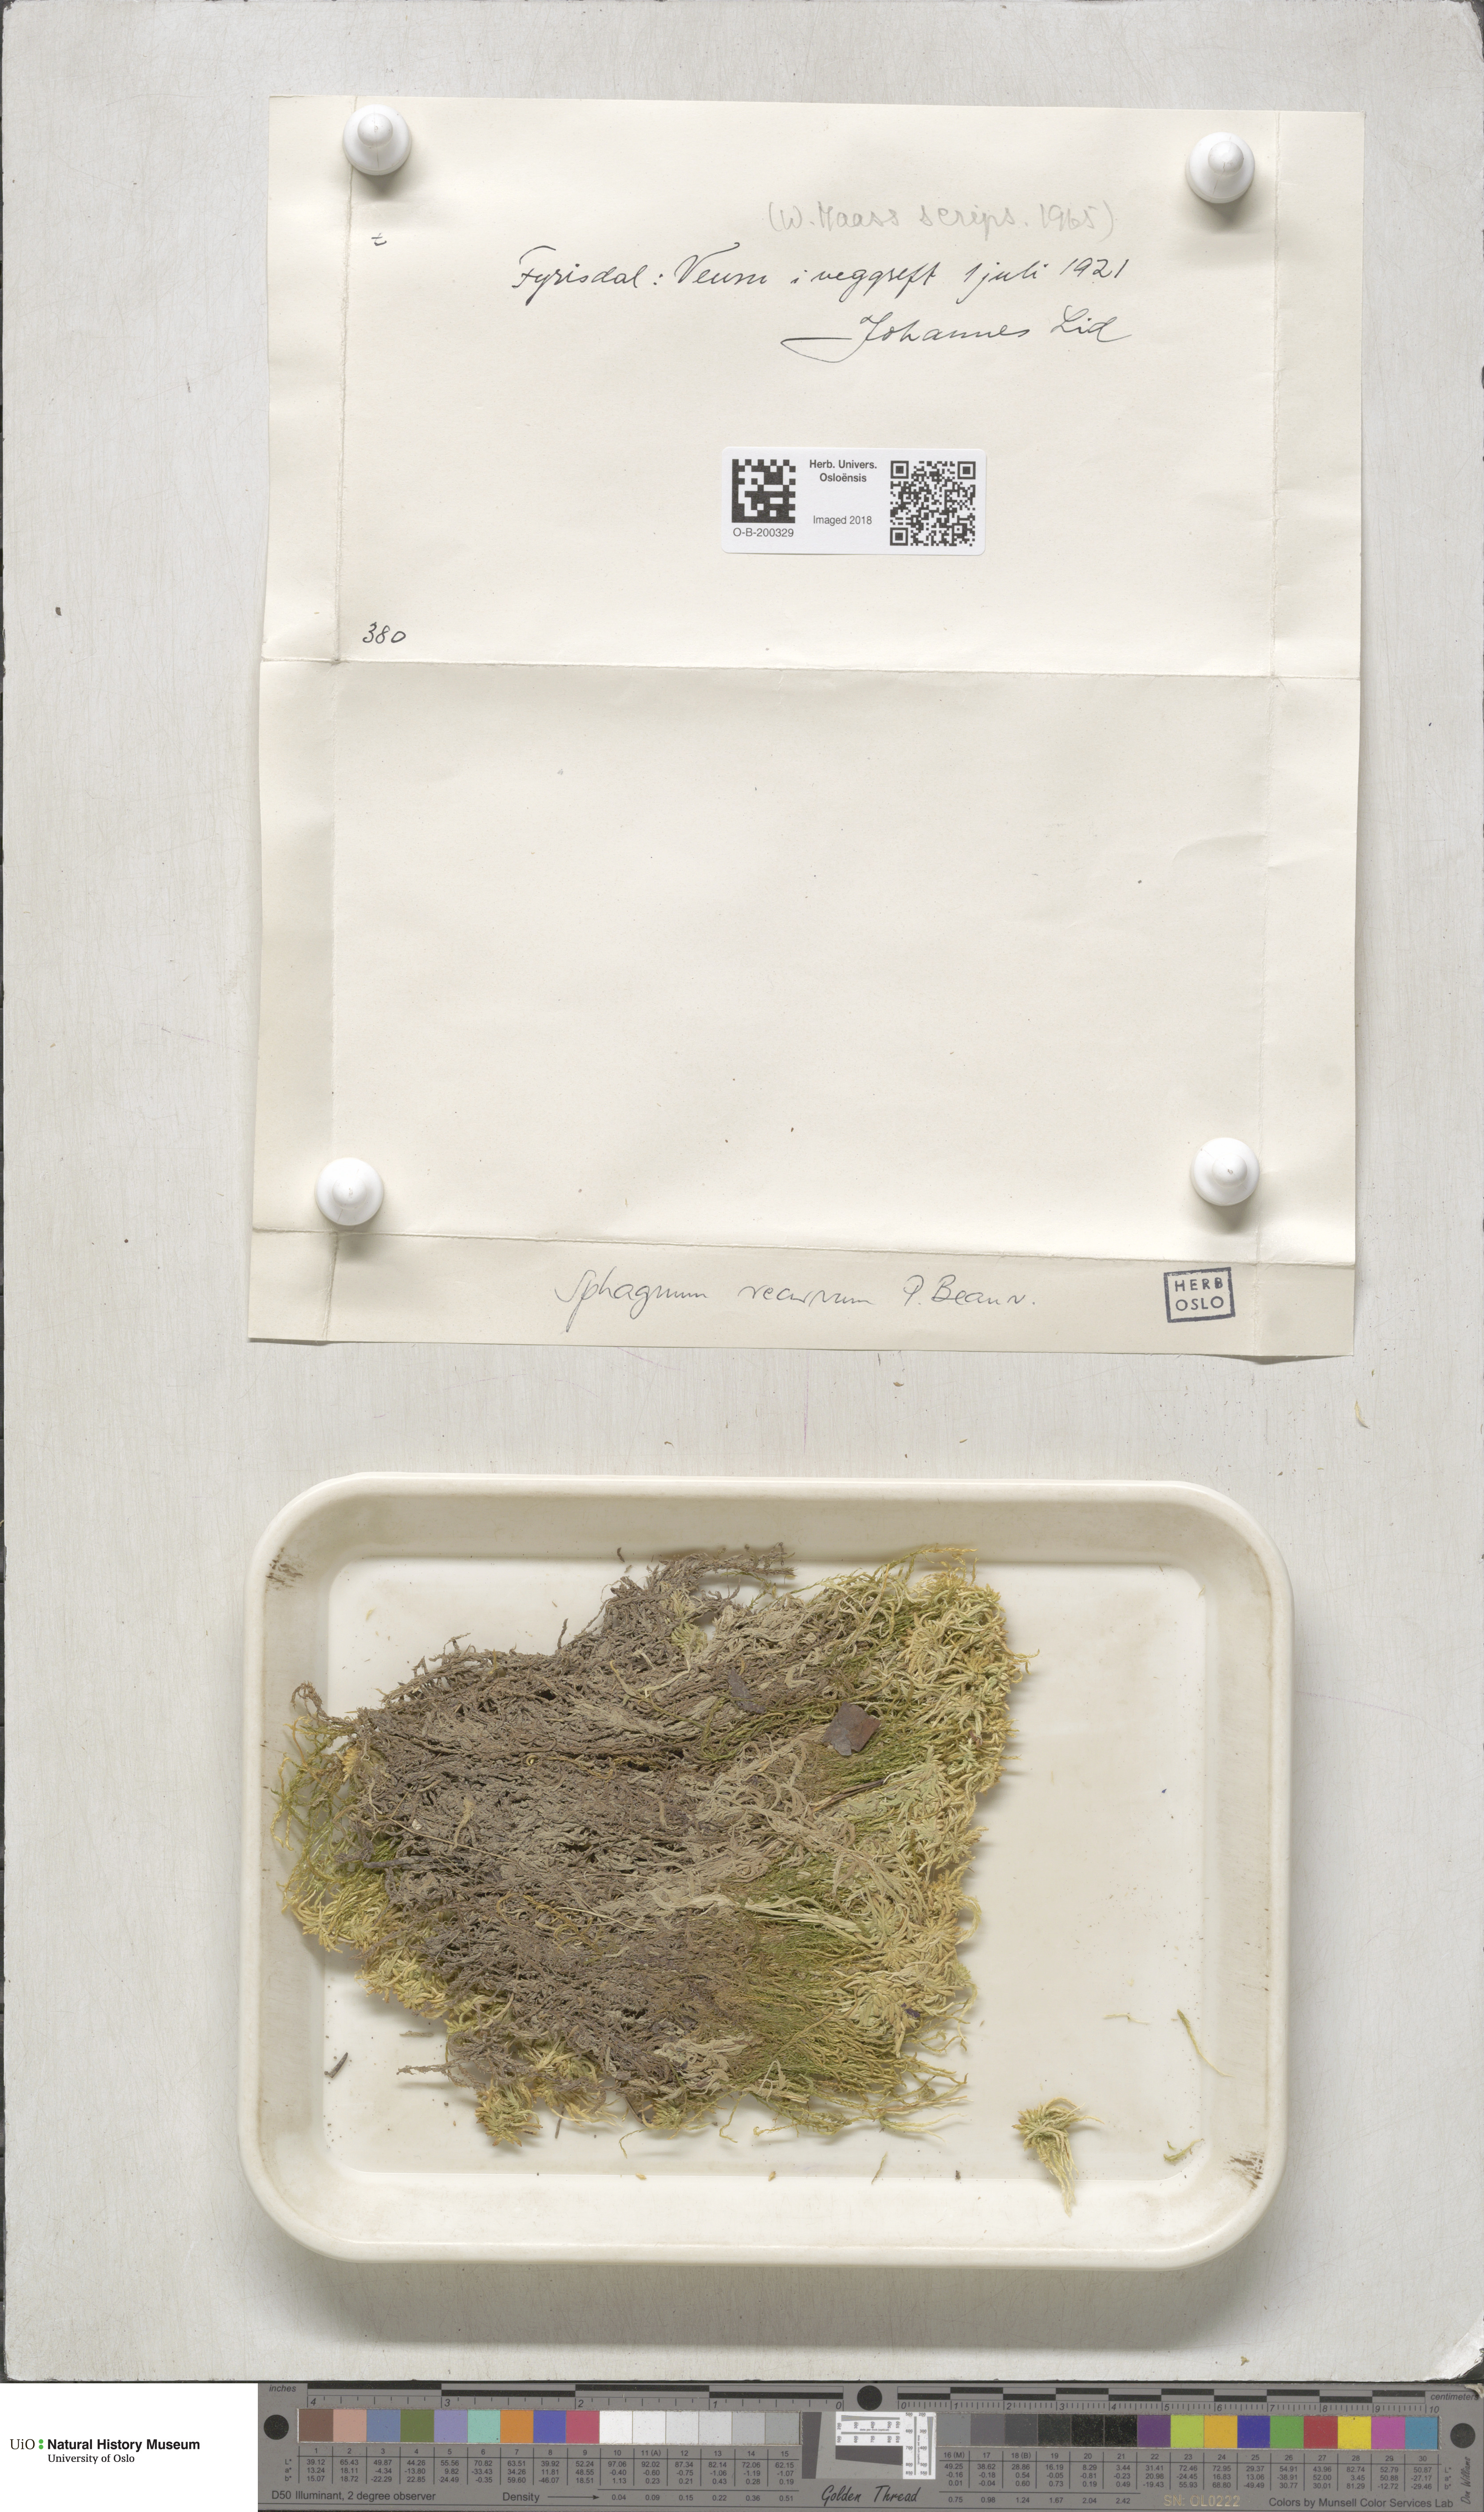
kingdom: Plantae
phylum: Bryophyta
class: Sphagnopsida
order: Sphagnales
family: Sphagnaceae
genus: Sphagnum
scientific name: Sphagnum fallax
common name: Flat-top peat moss
